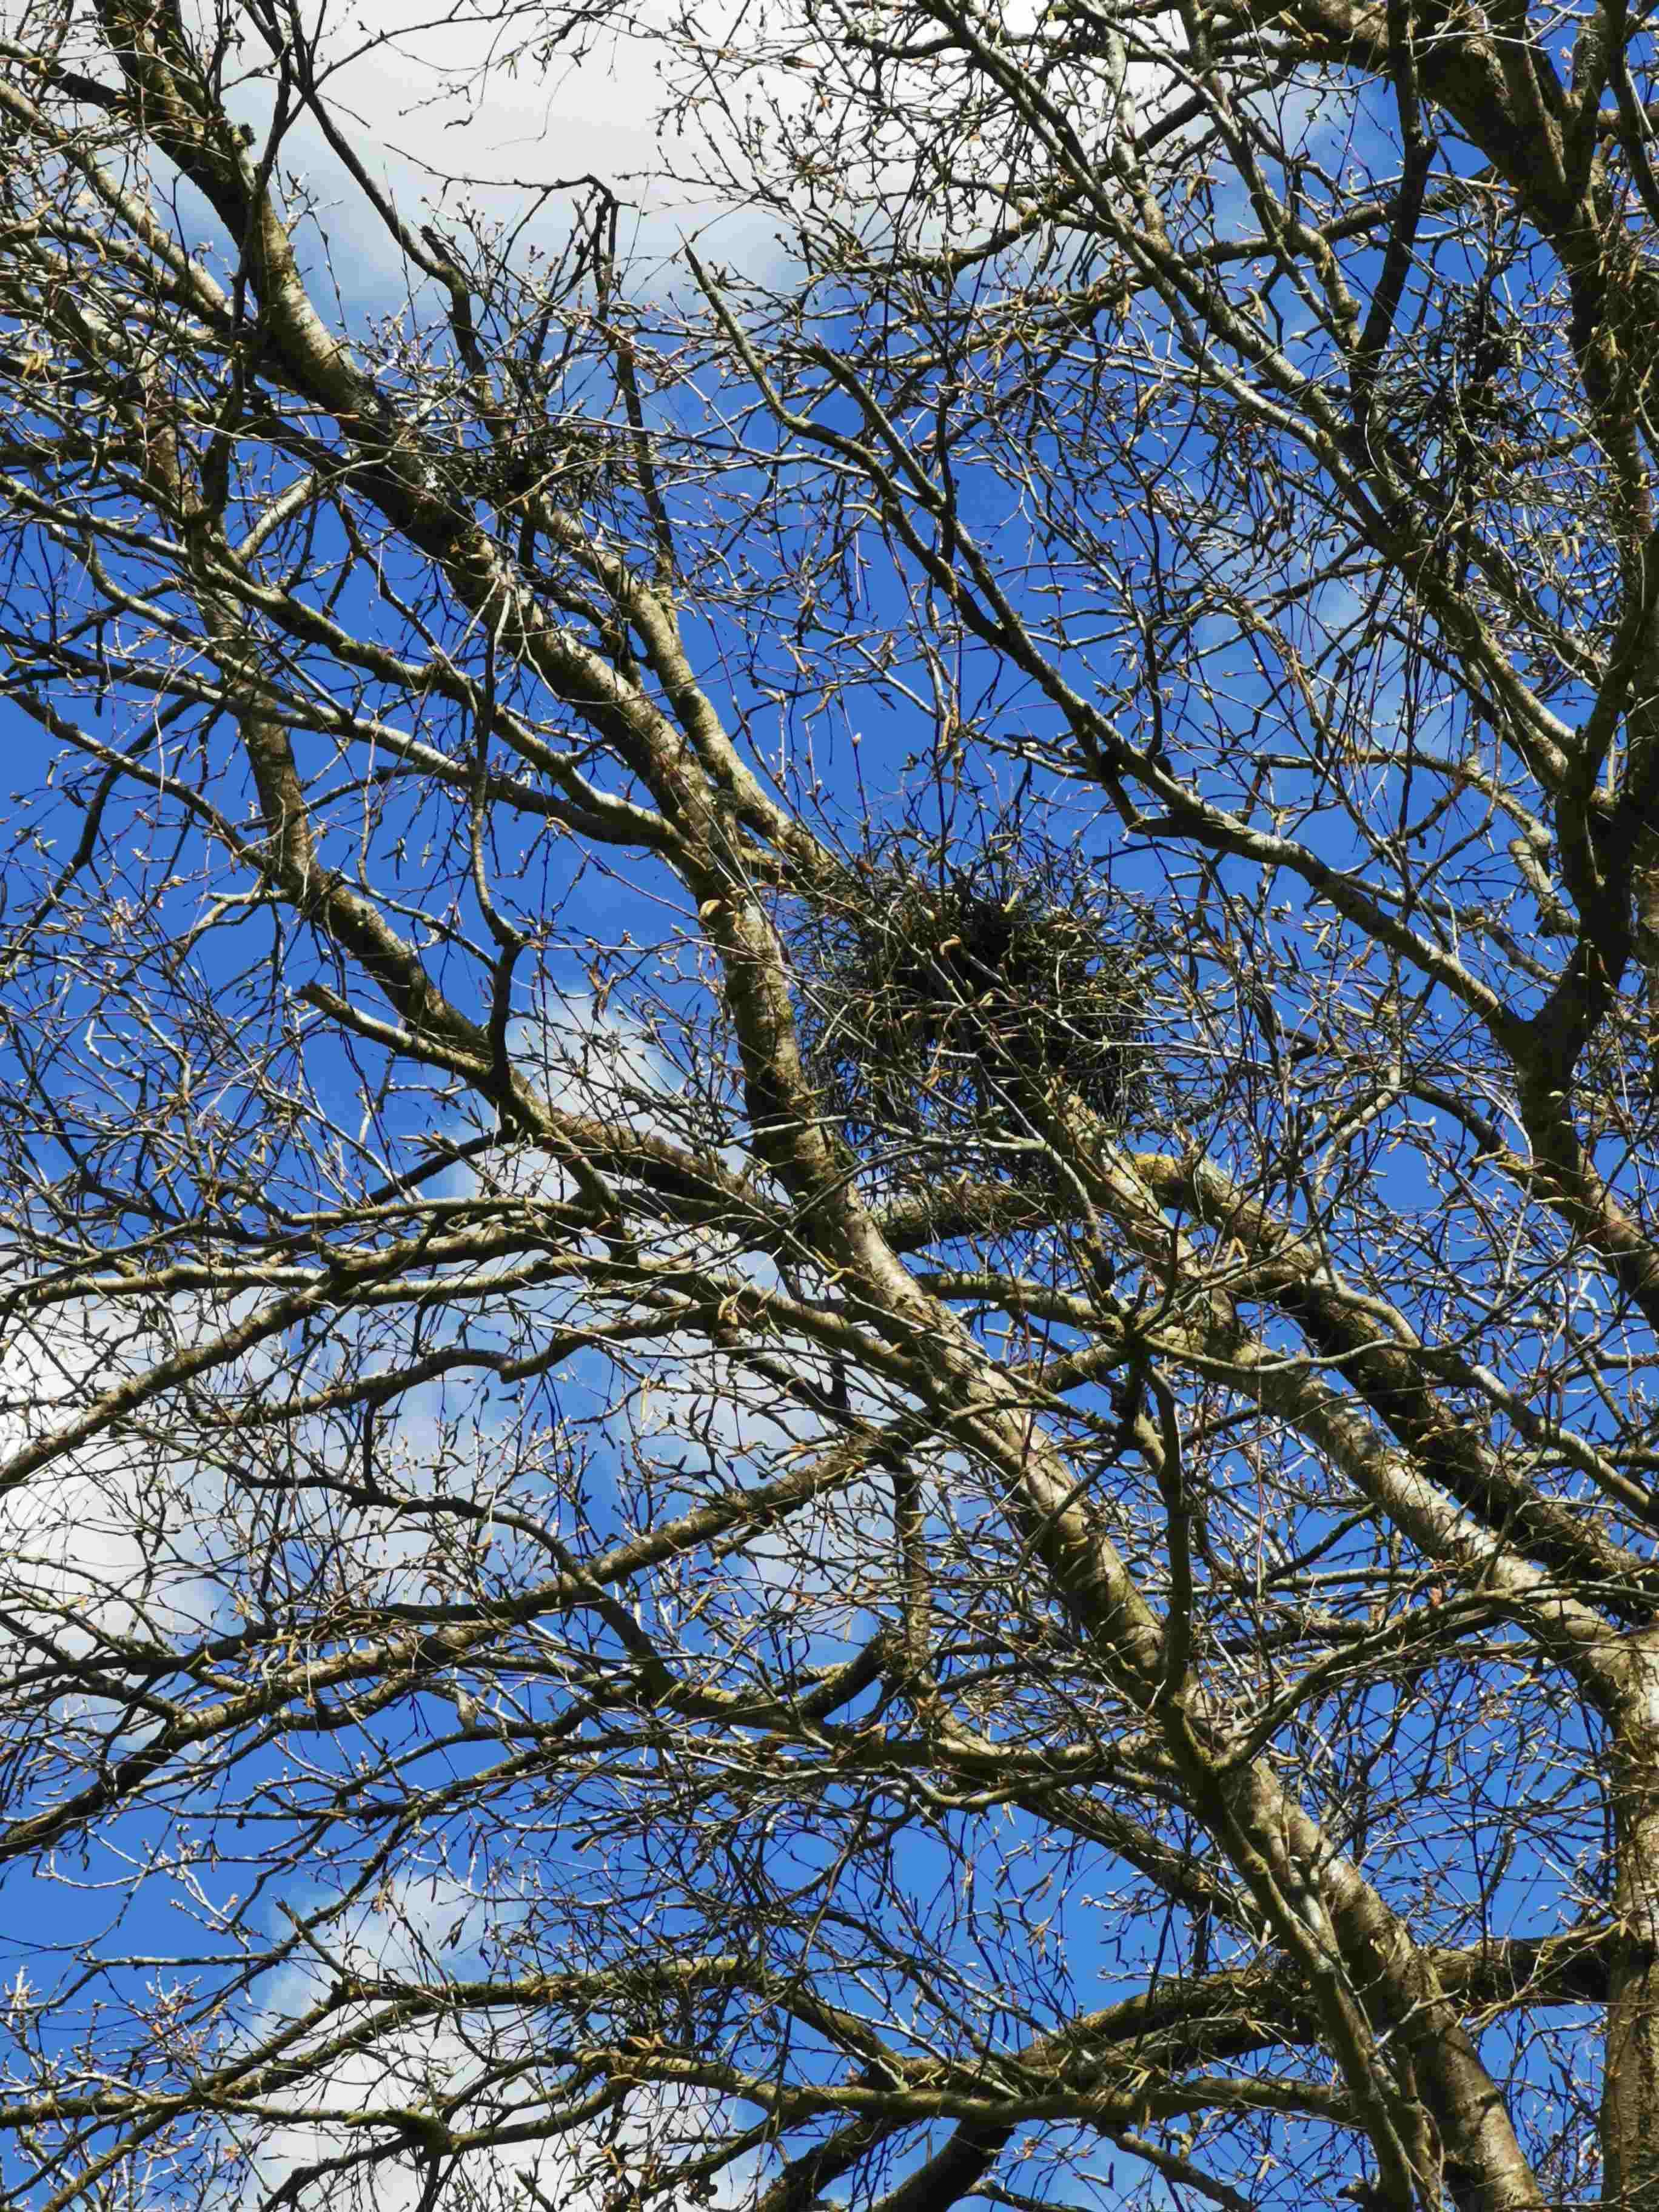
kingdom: Fungi
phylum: Ascomycota
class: Taphrinomycetes
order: Taphrinales
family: Taphrinaceae
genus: Taphrina
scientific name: Taphrina betulina
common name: hekse-sækdug
